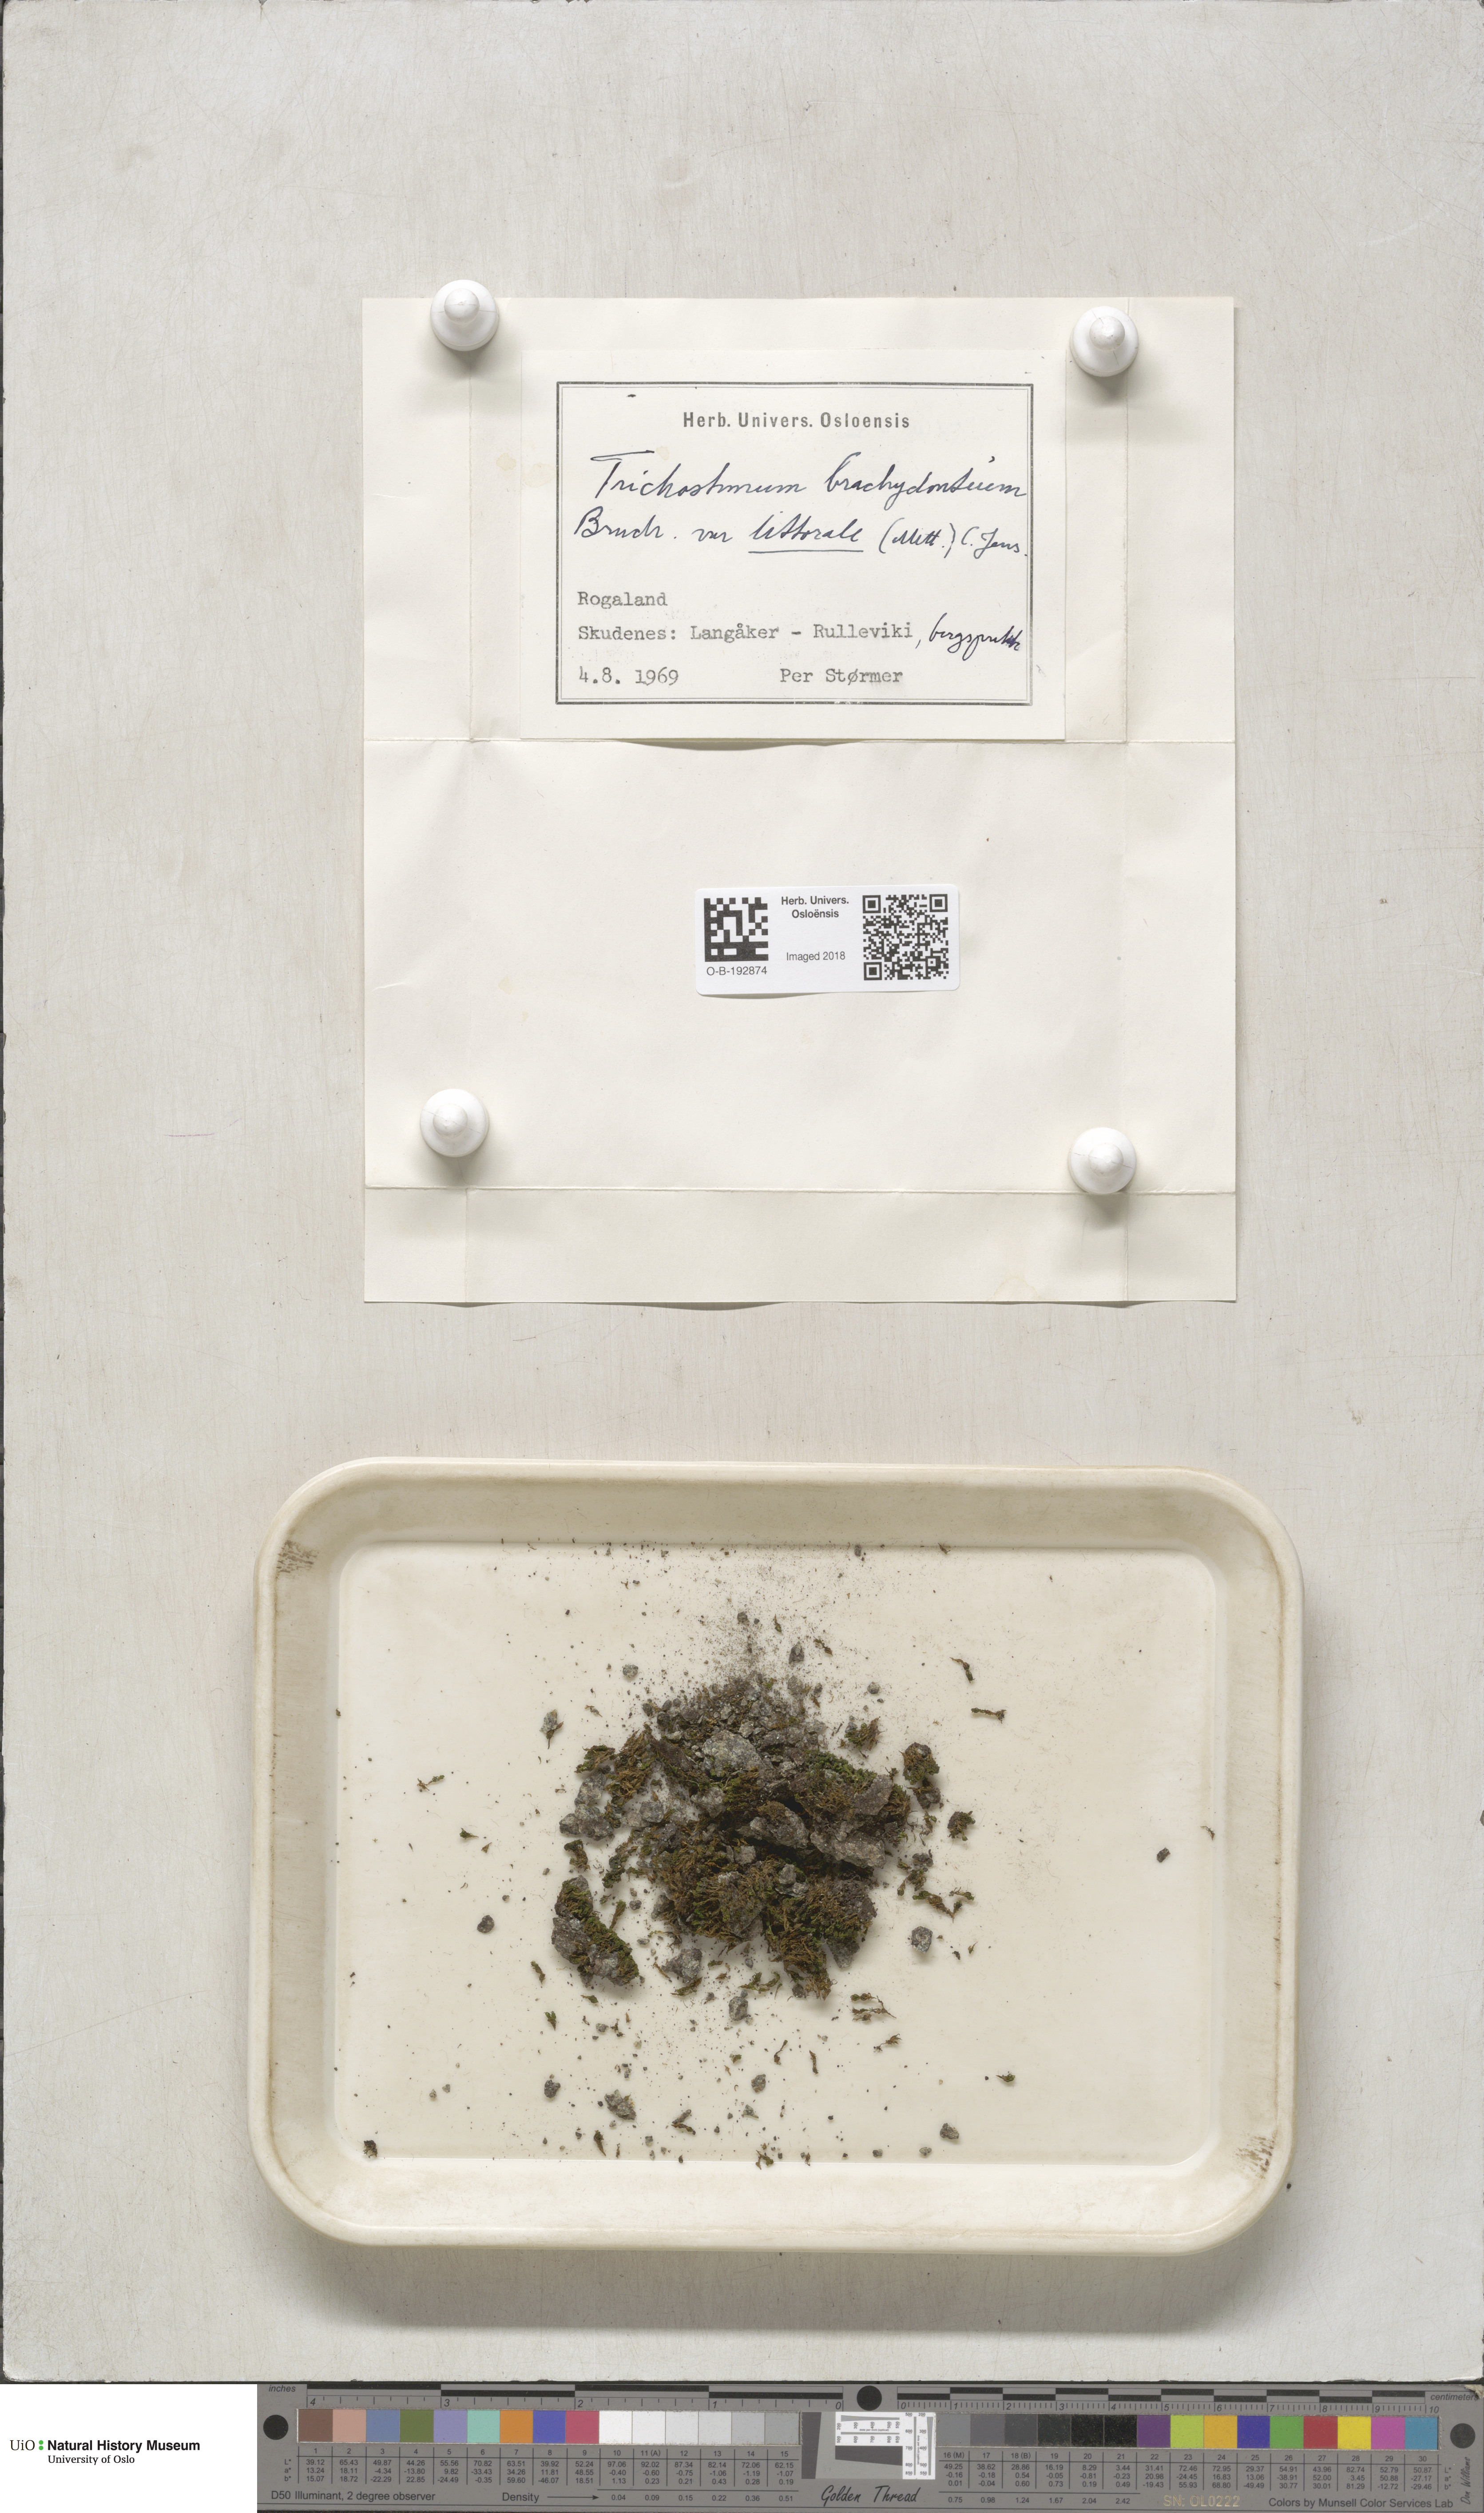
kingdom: Plantae
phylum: Bryophyta
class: Bryopsida
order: Pottiales
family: Pottiaceae
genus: Trichostomum
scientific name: Trichostomum brachydontium
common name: Variable crisp-moss
